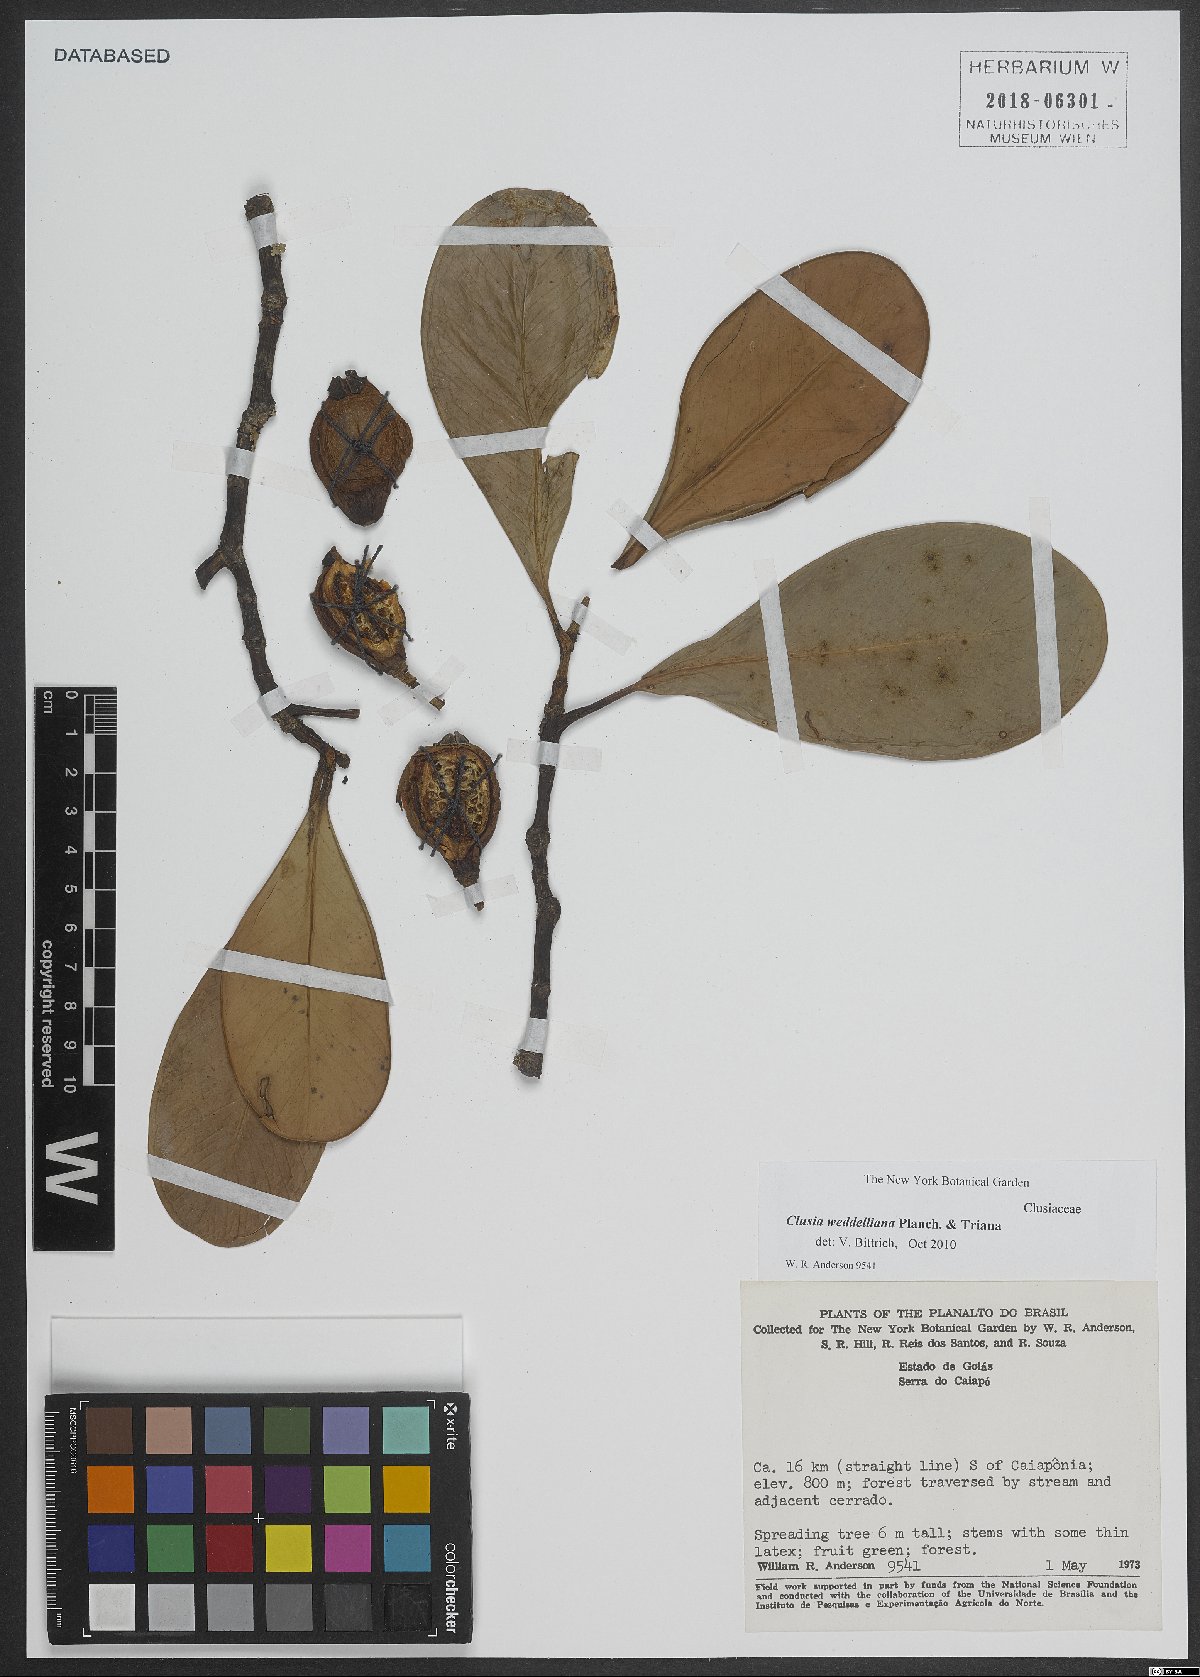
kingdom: Plantae
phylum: Tracheophyta
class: Magnoliopsida
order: Malpighiales
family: Clusiaceae
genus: Clusia
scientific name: Clusia weddelliana
